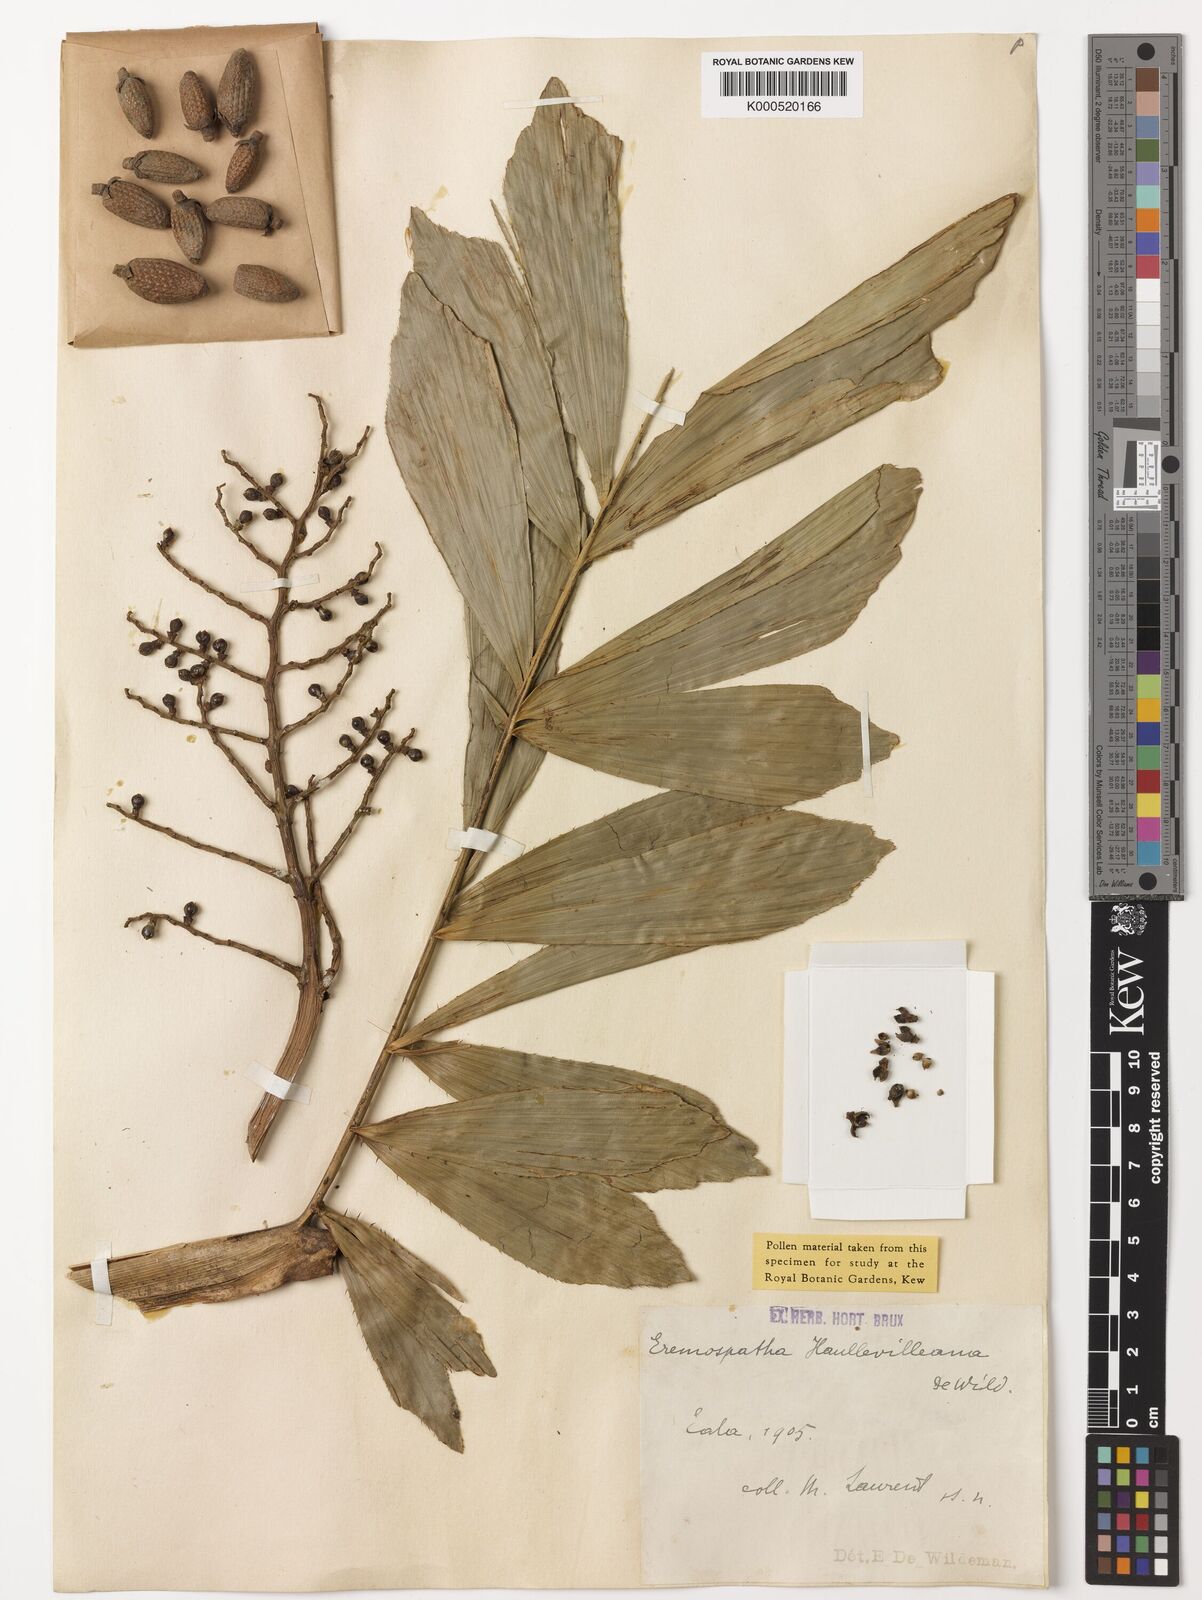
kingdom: Plantae
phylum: Tracheophyta
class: Liliopsida
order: Arecales
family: Arecaceae
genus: Eremospatha
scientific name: Eremospatha haullevilleana
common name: Rattan
